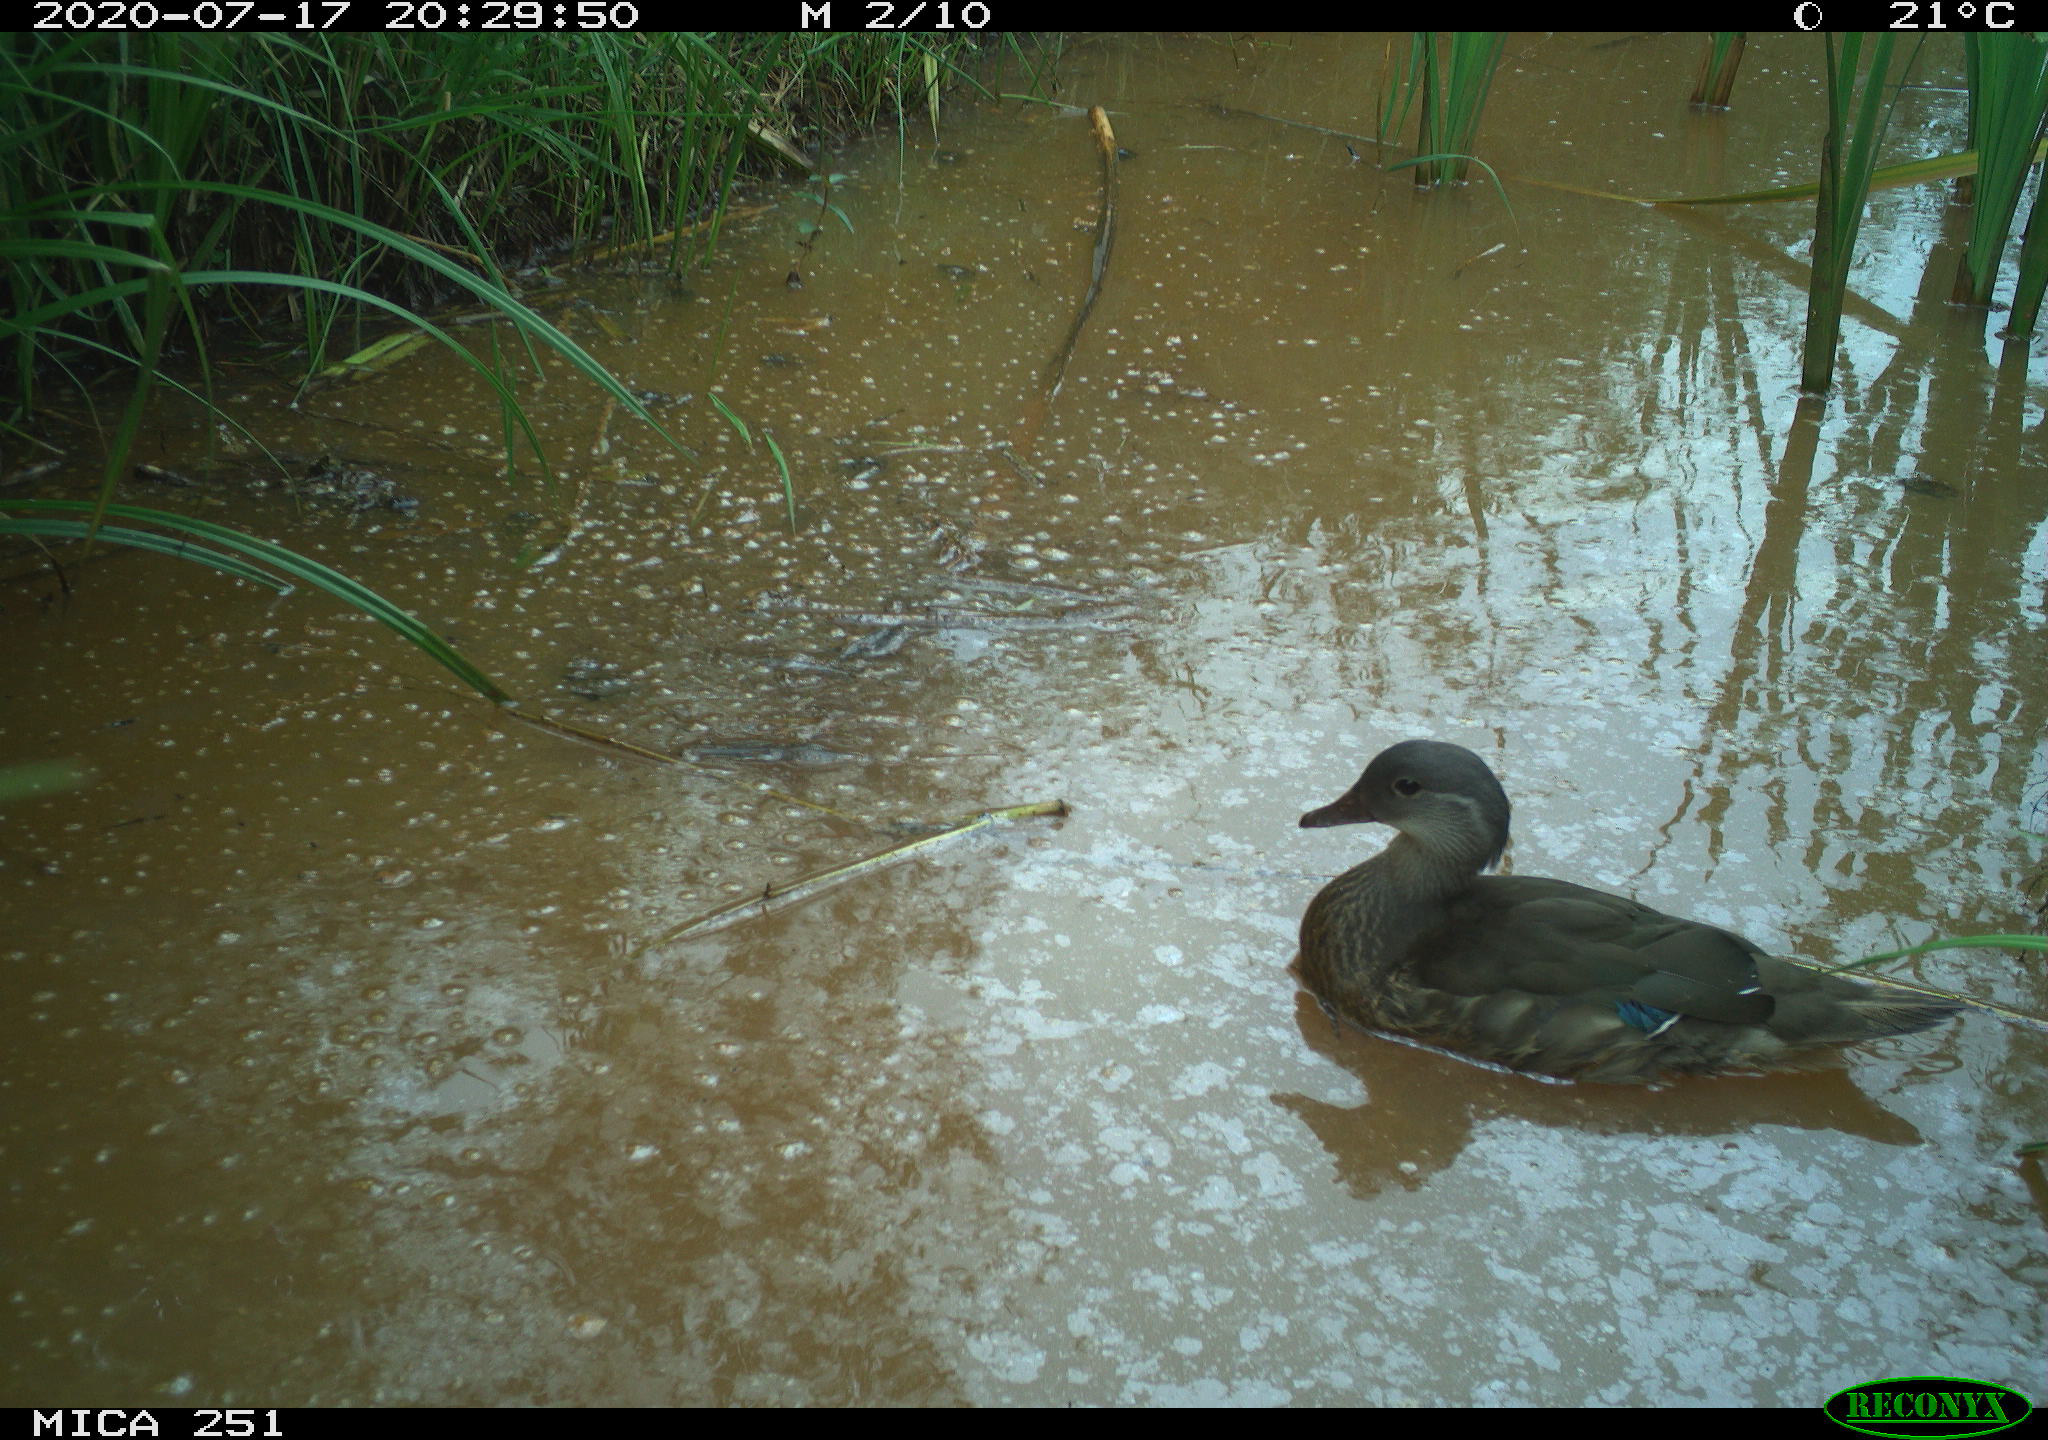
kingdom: Animalia
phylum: Chordata
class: Aves
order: Anseriformes
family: Anatidae
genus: Aix
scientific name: Aix galericulata
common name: Mandarin duck
